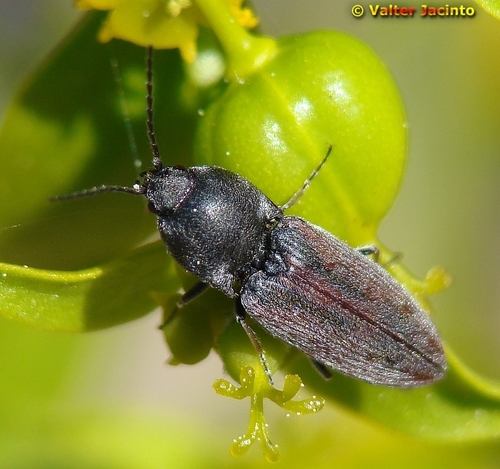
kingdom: Animalia
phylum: Arthropoda
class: Insecta
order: Coleoptera
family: Elateridae
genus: Dicronychus
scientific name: Dicronychus
